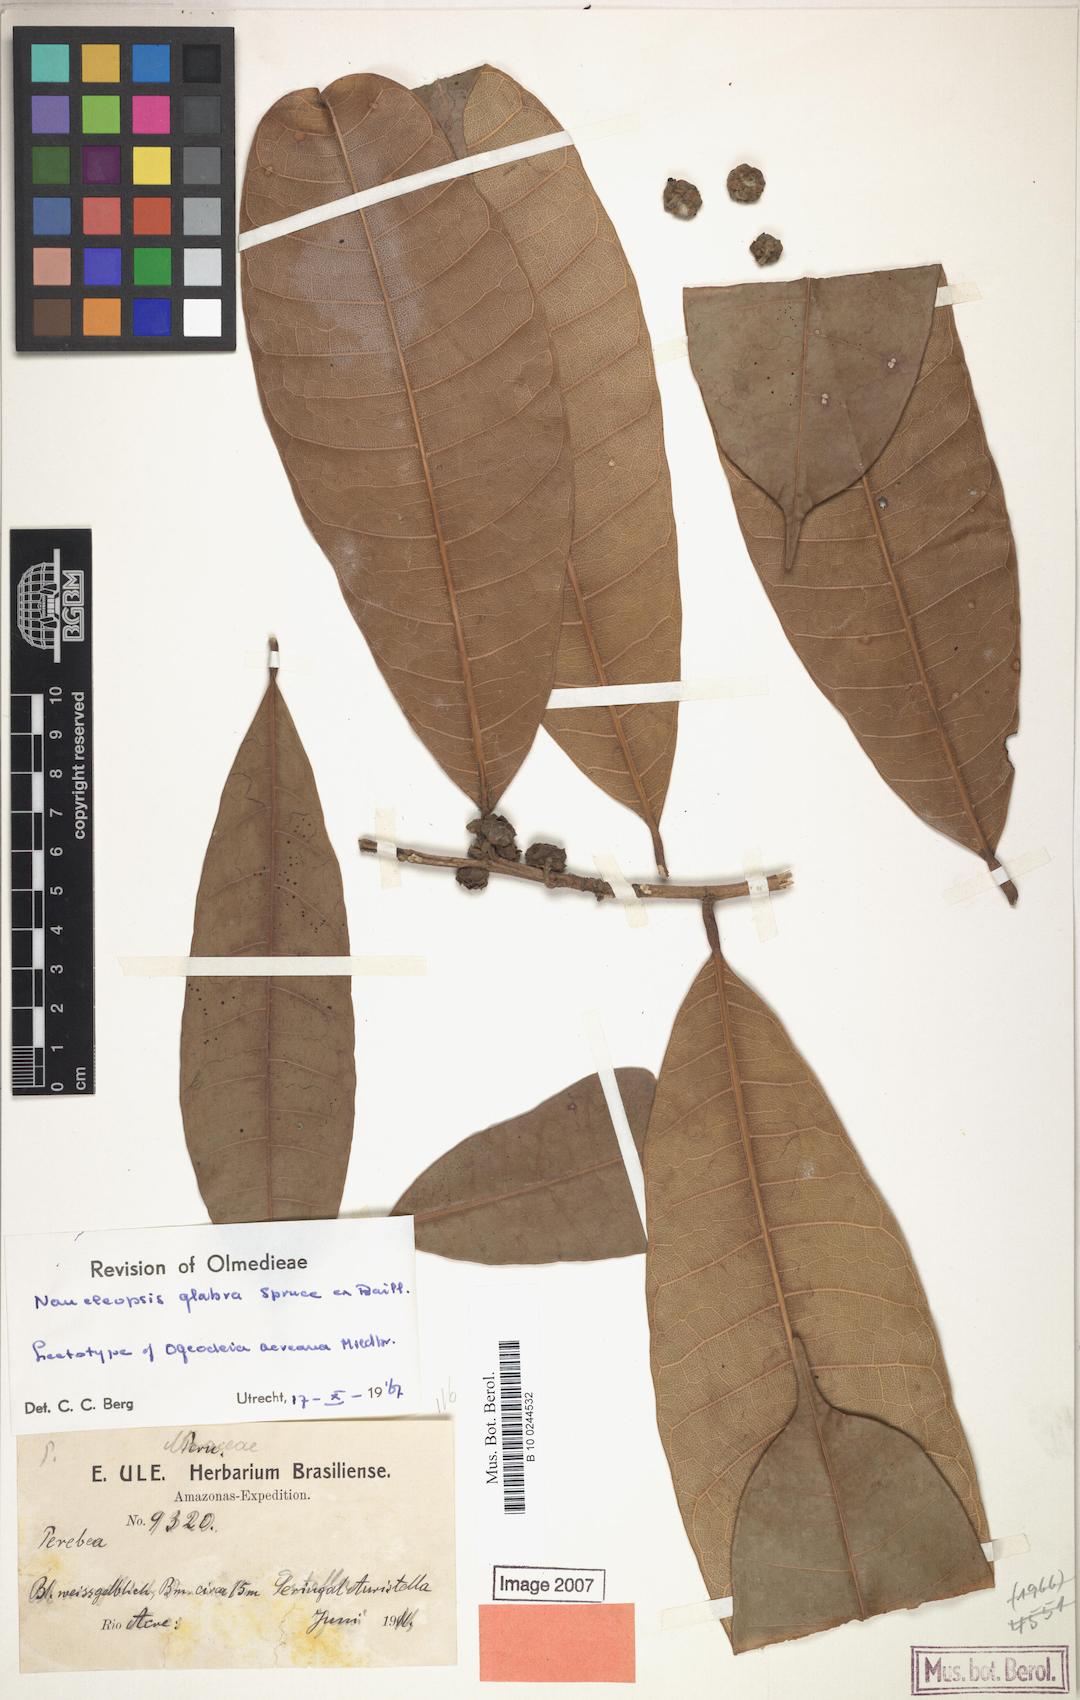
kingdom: Plantae
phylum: Tracheophyta
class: Magnoliopsida
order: Rosales
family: Moraceae
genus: Naucleopsis
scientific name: Naucleopsis glabra
